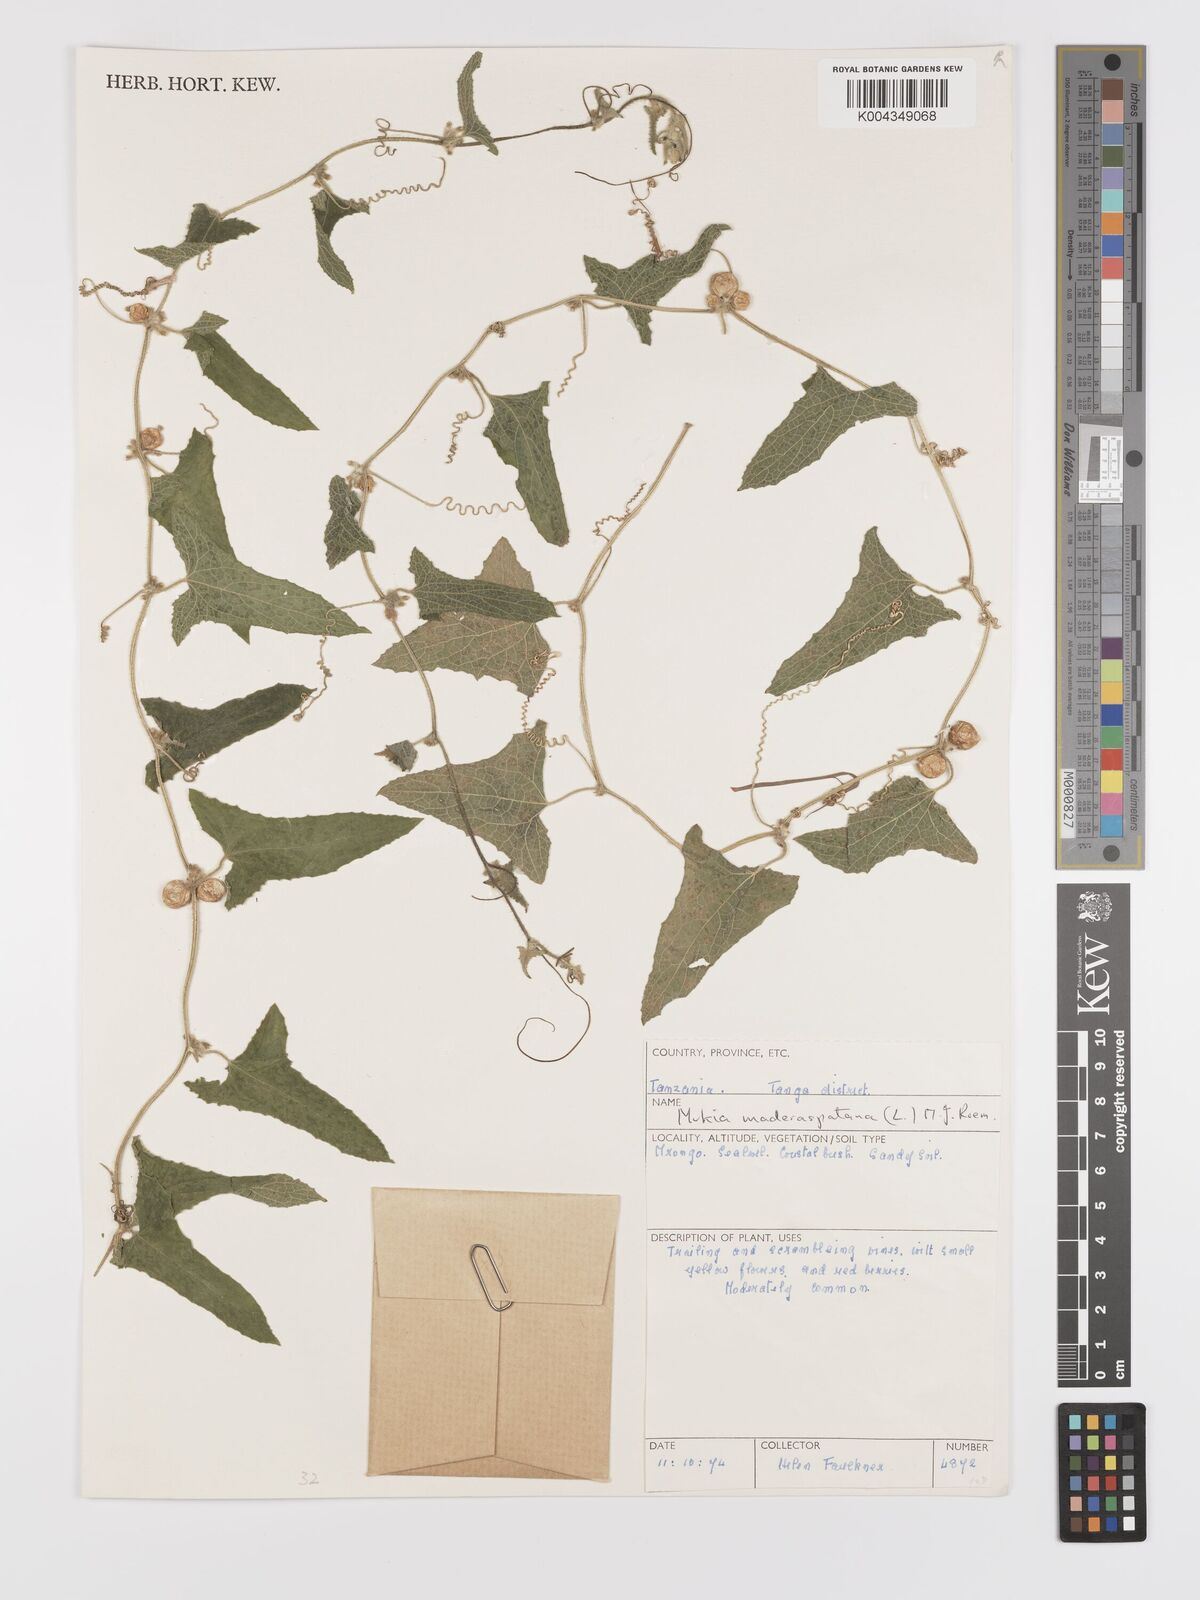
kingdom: Plantae
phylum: Tracheophyta
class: Magnoliopsida
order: Cucurbitales
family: Cucurbitaceae
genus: Cucumis
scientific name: Cucumis maderaspatanus
